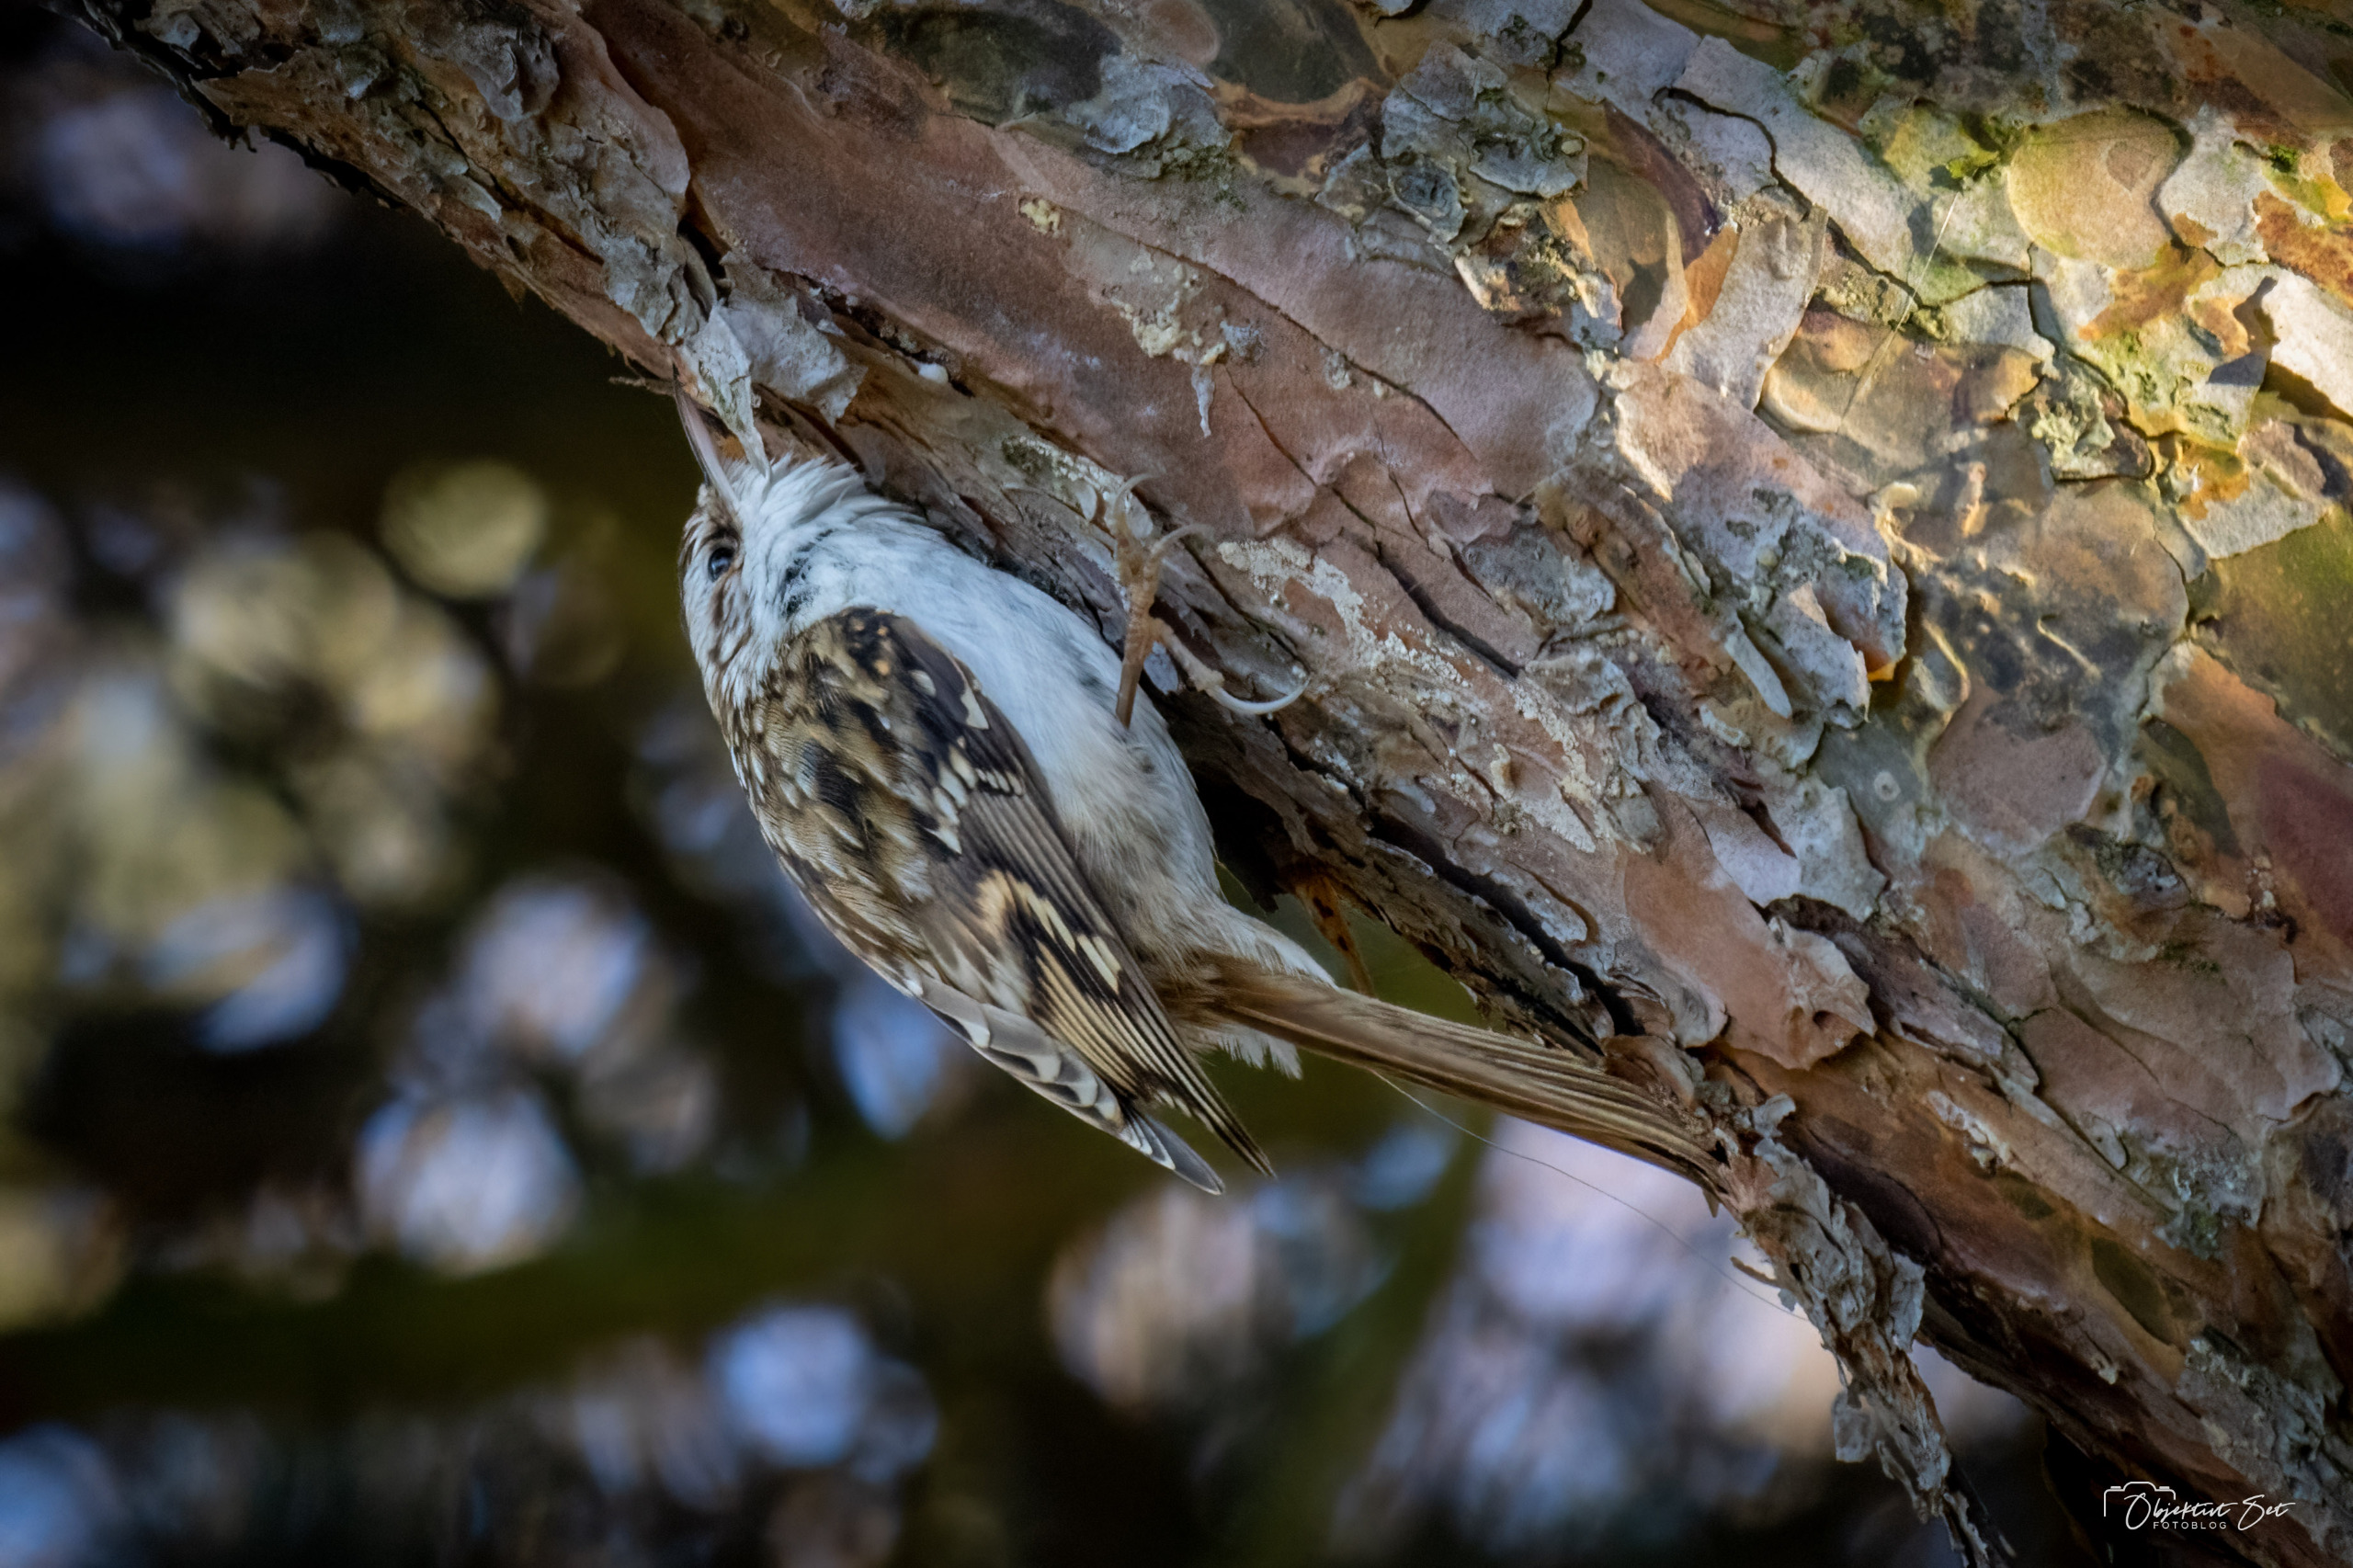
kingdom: Animalia
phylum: Chordata
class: Aves
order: Passeriformes
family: Certhiidae
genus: Certhia
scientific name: Certhia familiaris
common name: Træløber
